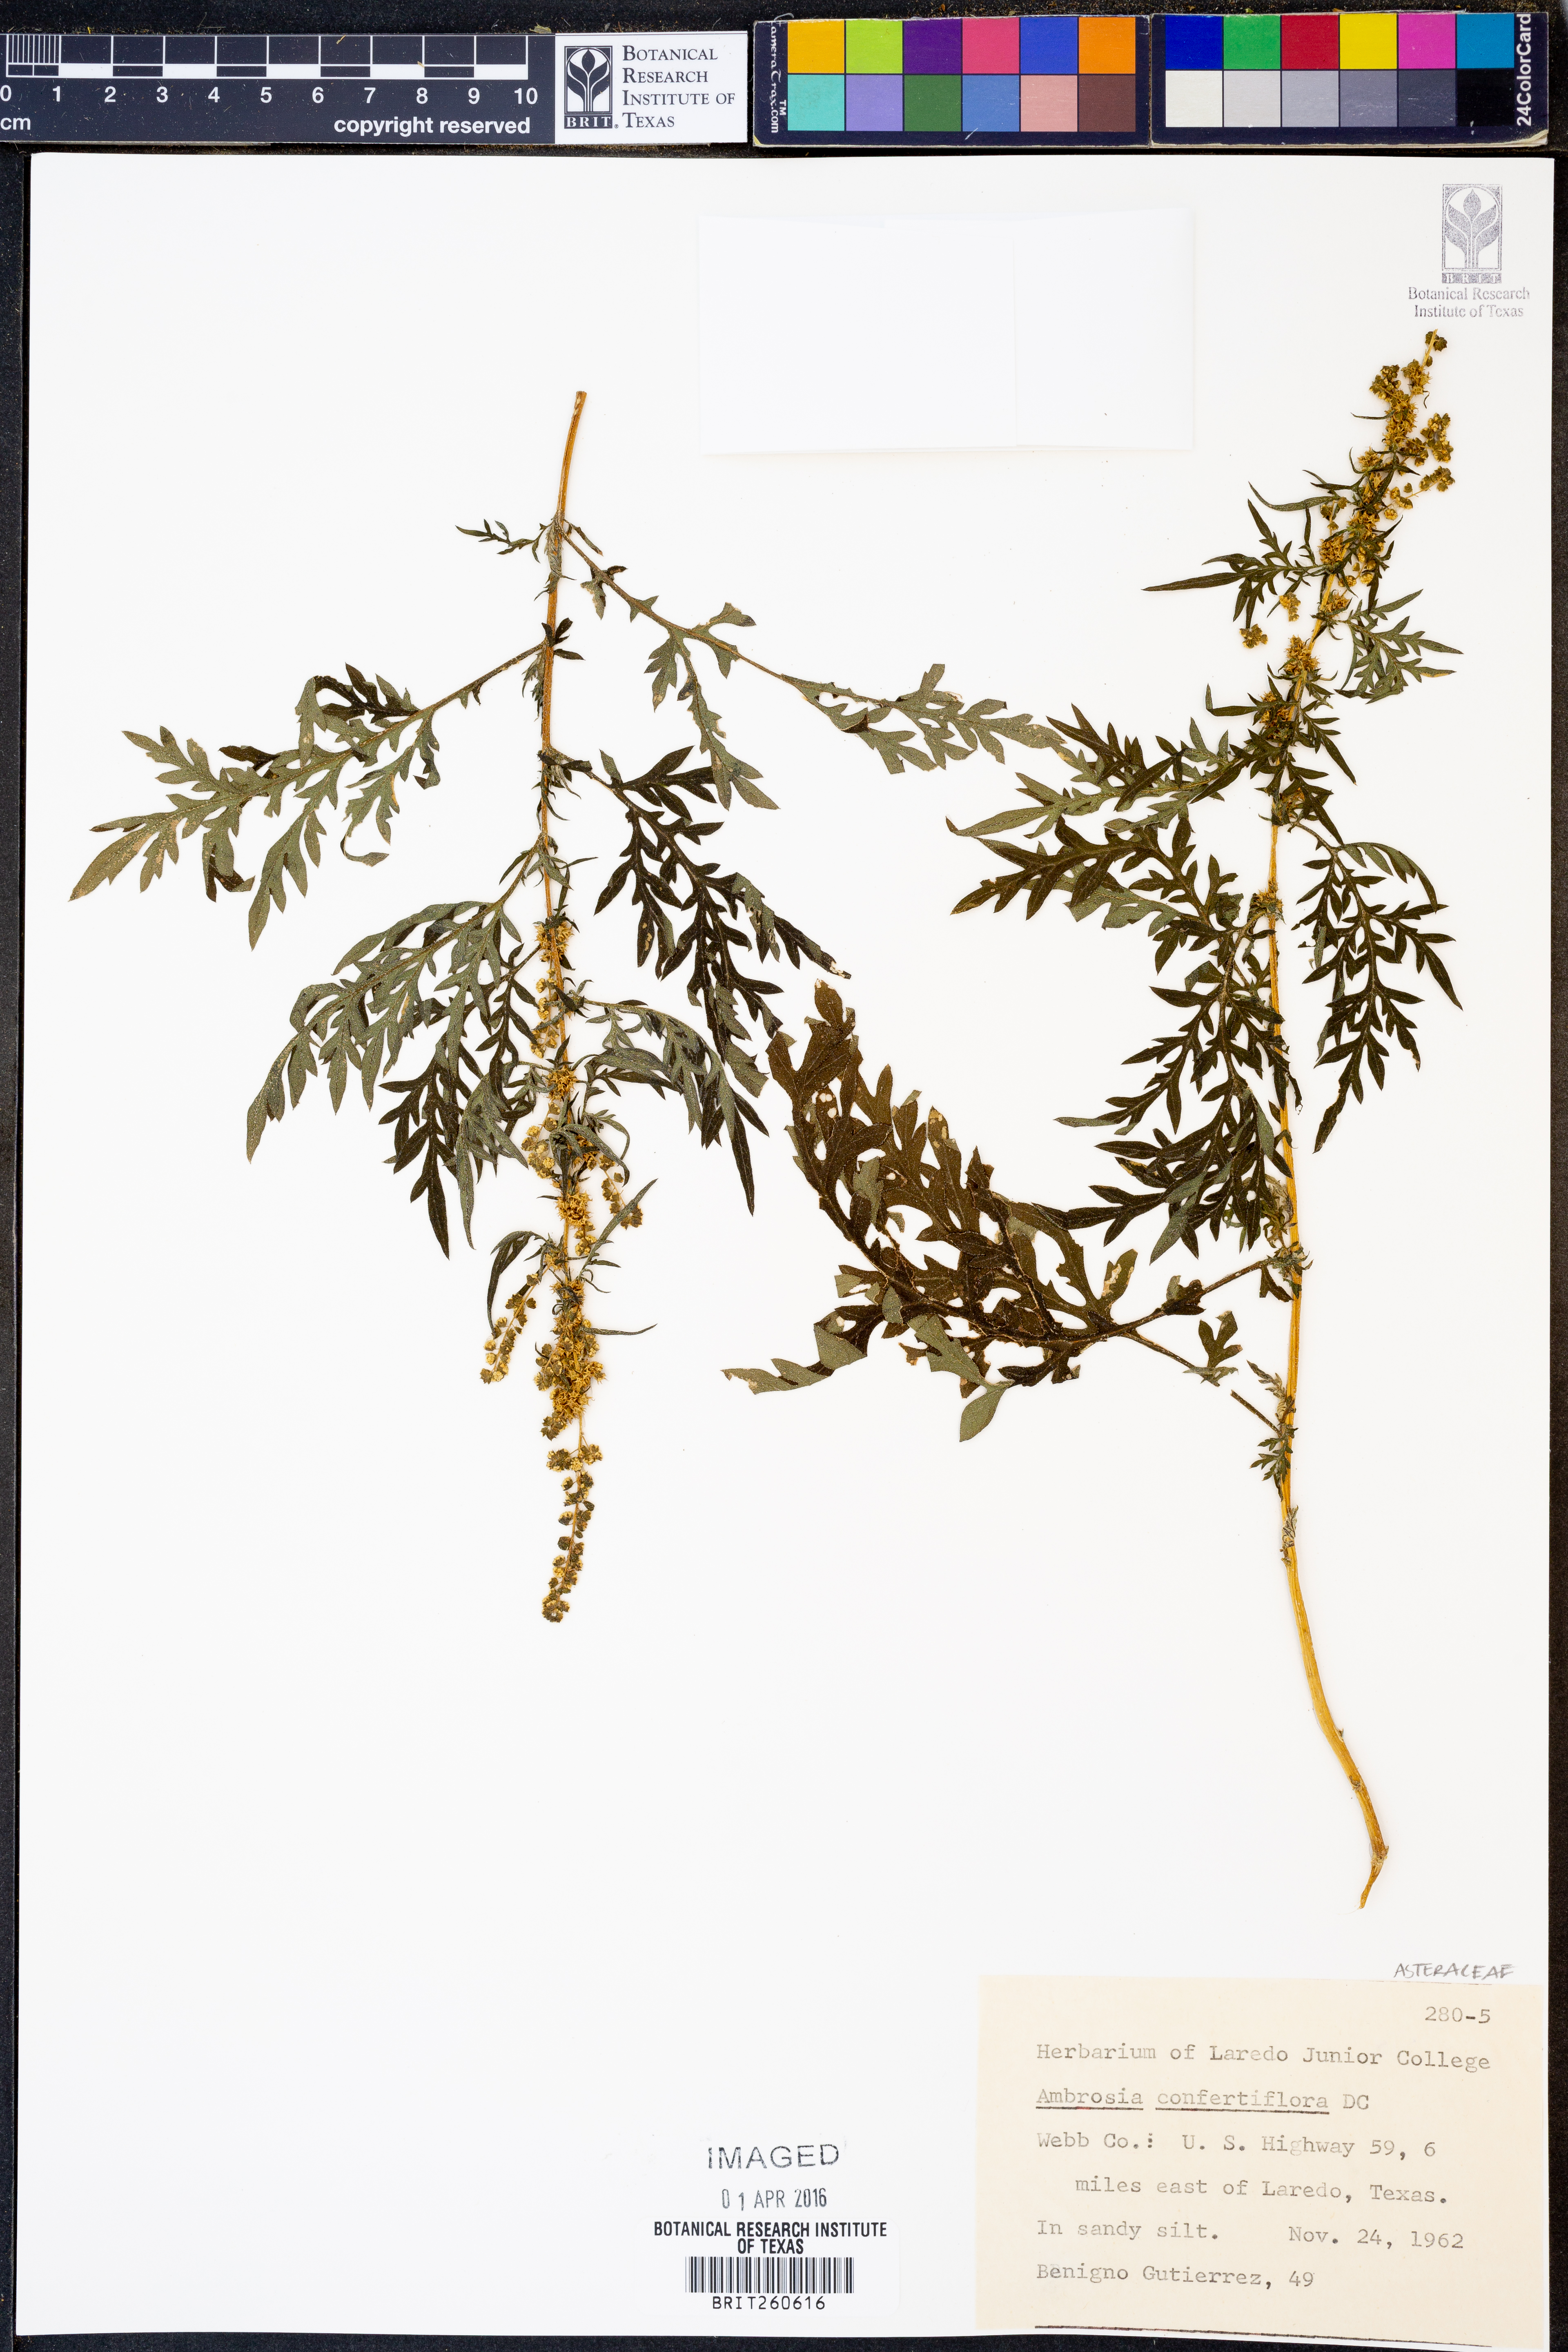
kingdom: Plantae
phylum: Tracheophyta
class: Magnoliopsida
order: Asterales
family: Asteraceae
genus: Ambrosia
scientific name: Ambrosia confertiflora
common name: Bur ragweed
